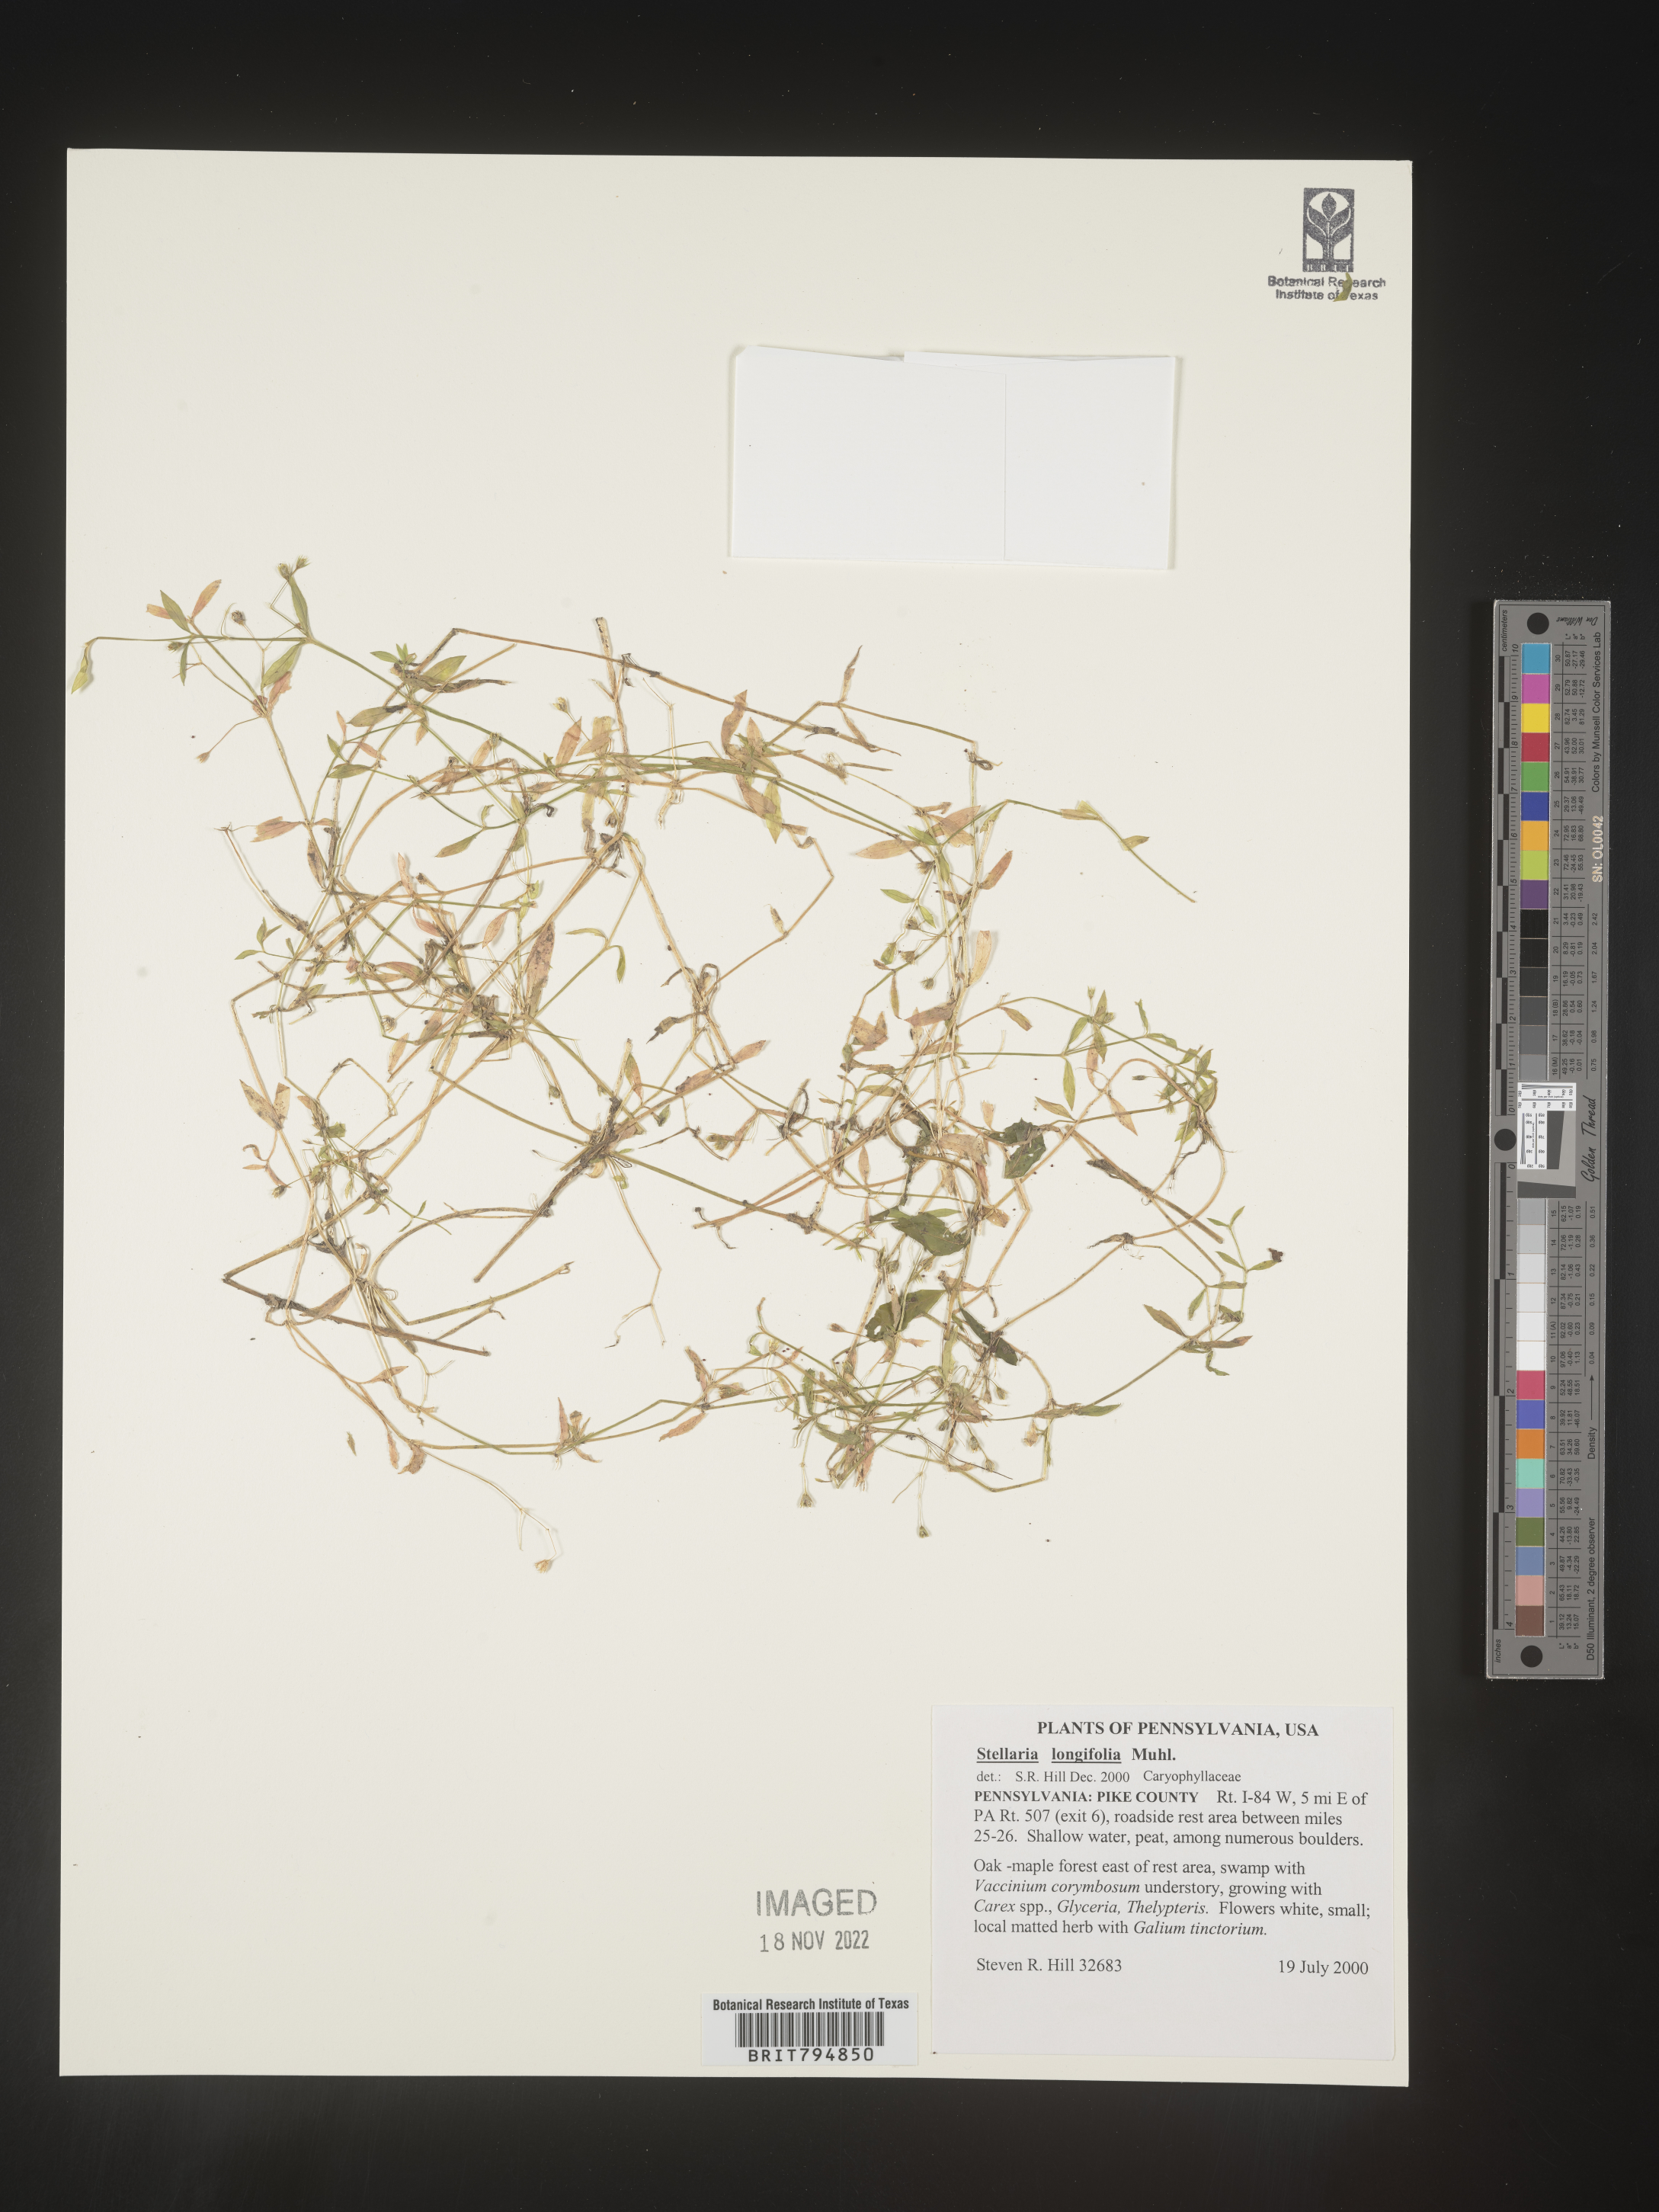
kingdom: Plantae
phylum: Tracheophyta
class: Magnoliopsida
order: Caryophyllales
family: Caryophyllaceae
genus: Stellaria
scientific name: Stellaria longifolia
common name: Long-leaved chickweed
